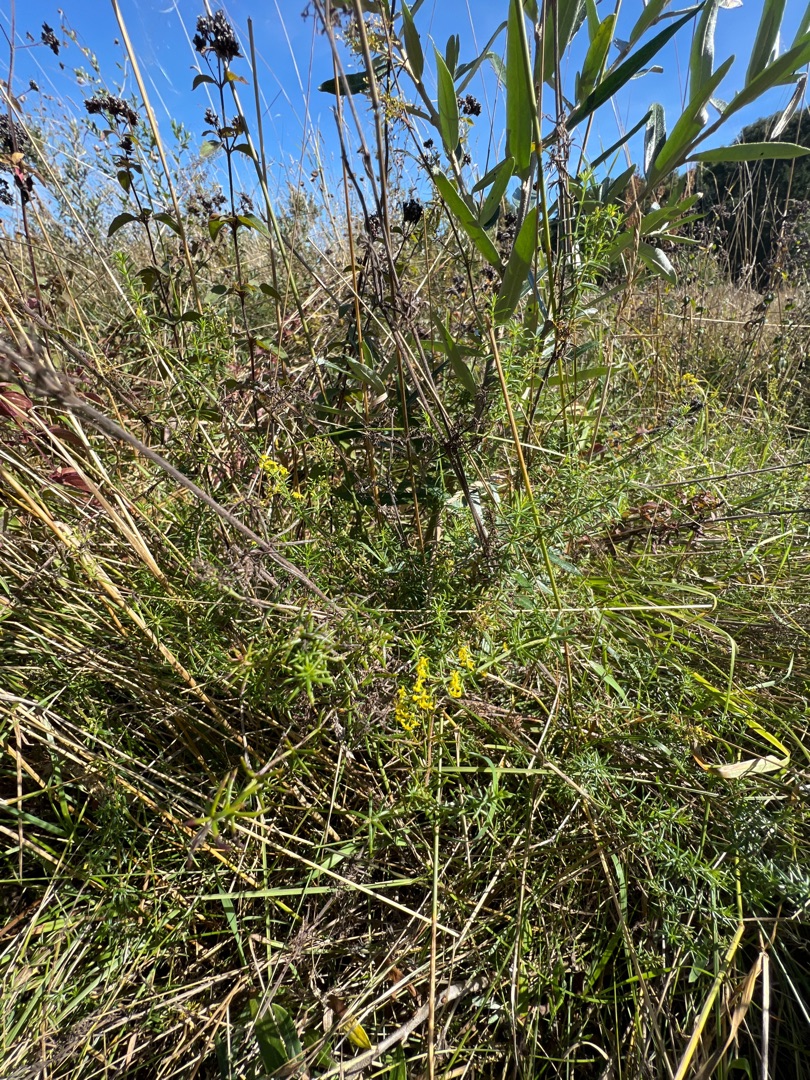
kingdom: Plantae
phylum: Tracheophyta
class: Magnoliopsida
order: Gentianales
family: Rubiaceae
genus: Galium
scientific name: Galium verum
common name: Gul snerre
